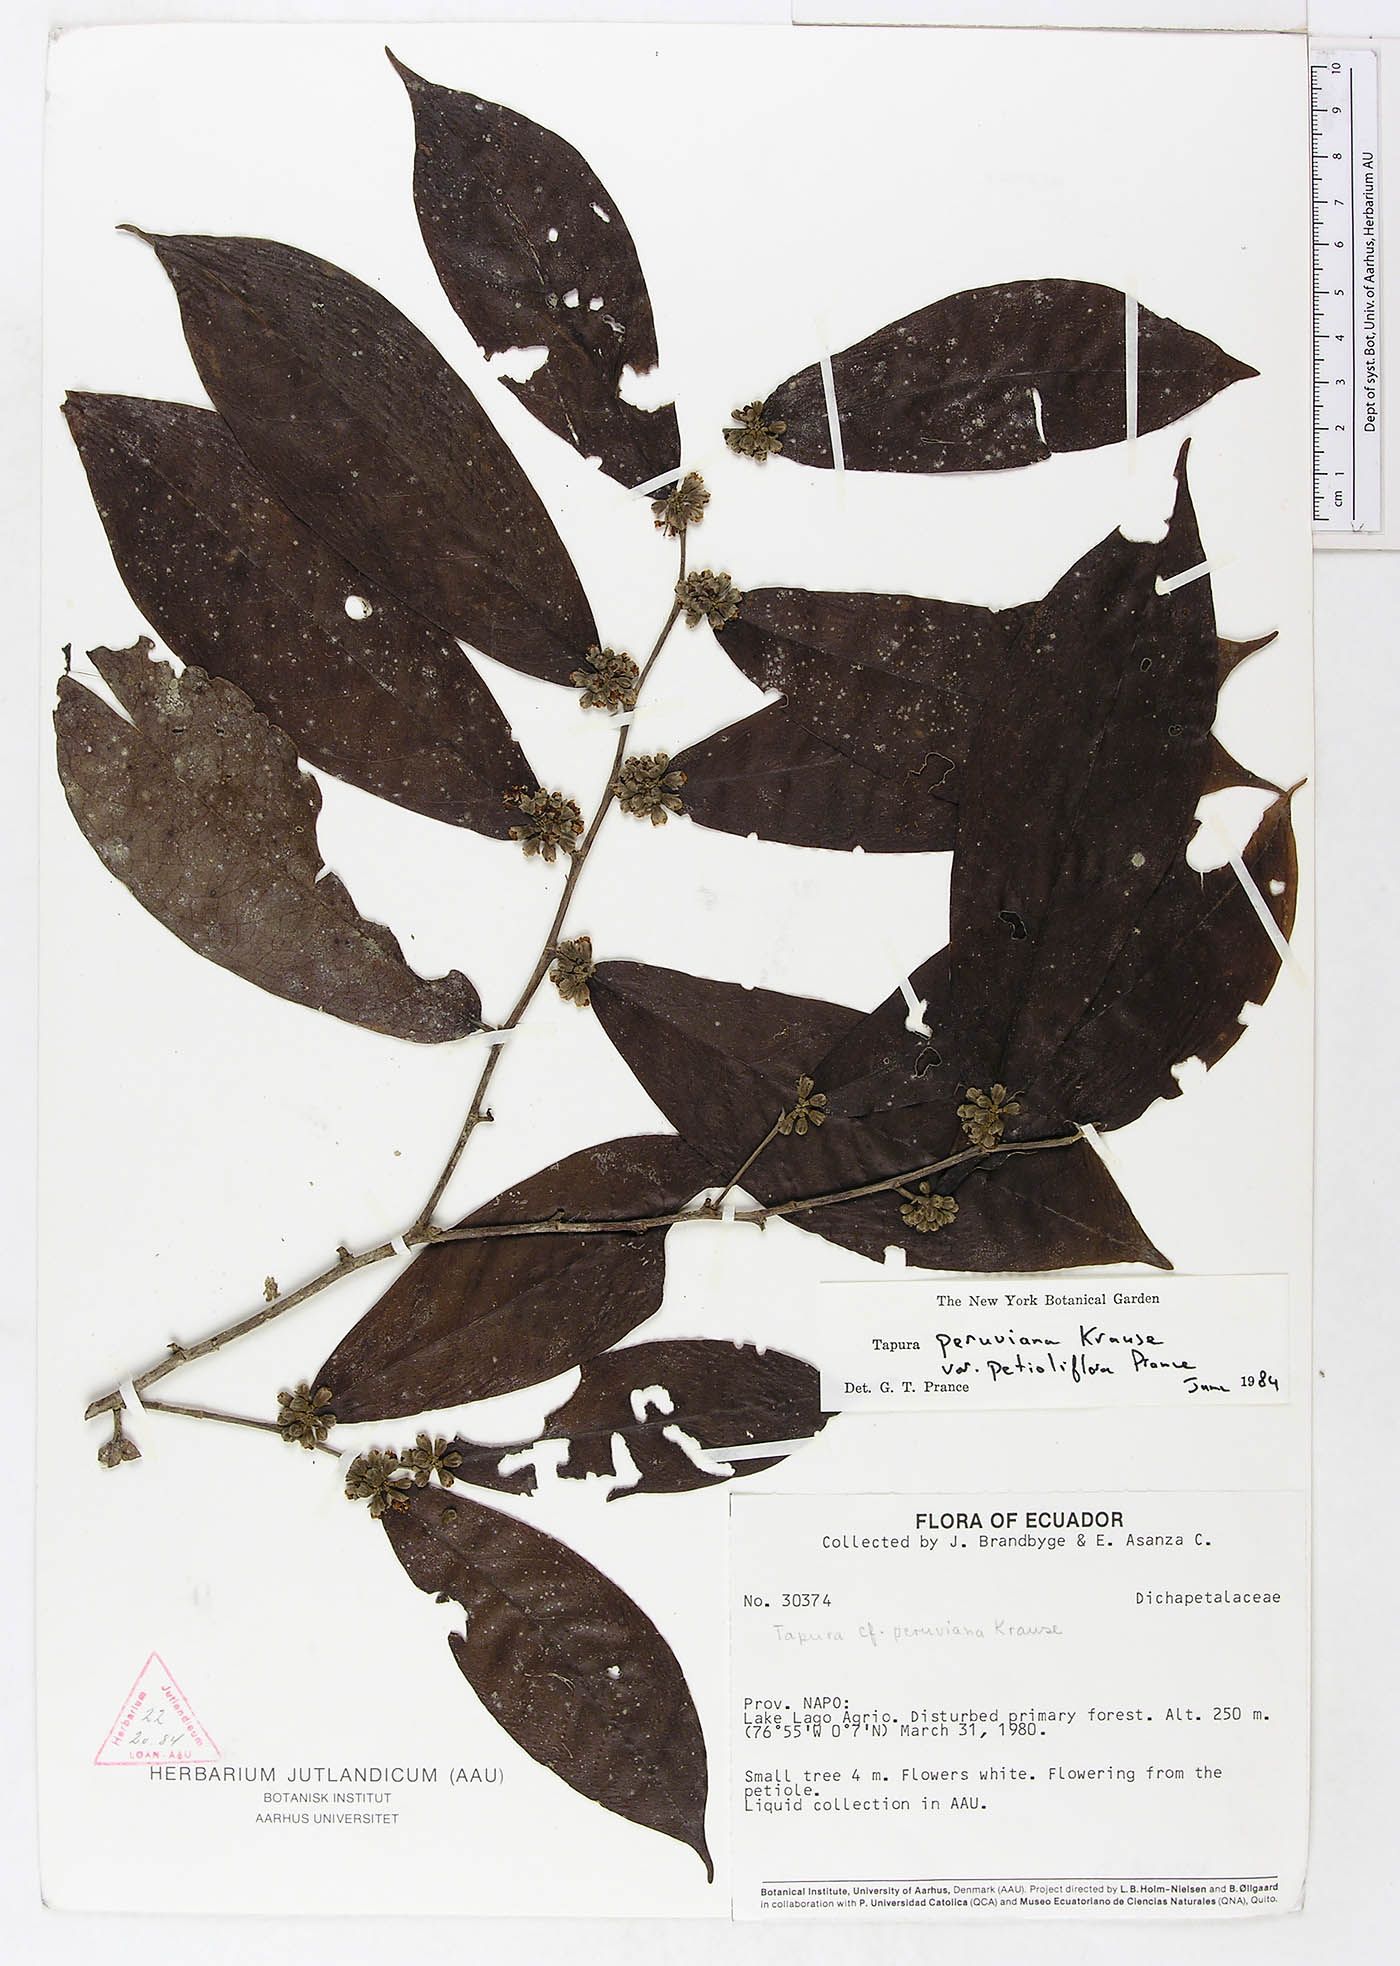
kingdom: Plantae
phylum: Tracheophyta
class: Magnoliopsida
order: Malpighiales
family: Dichapetalaceae
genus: Tapura
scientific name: Tapura peruviana
